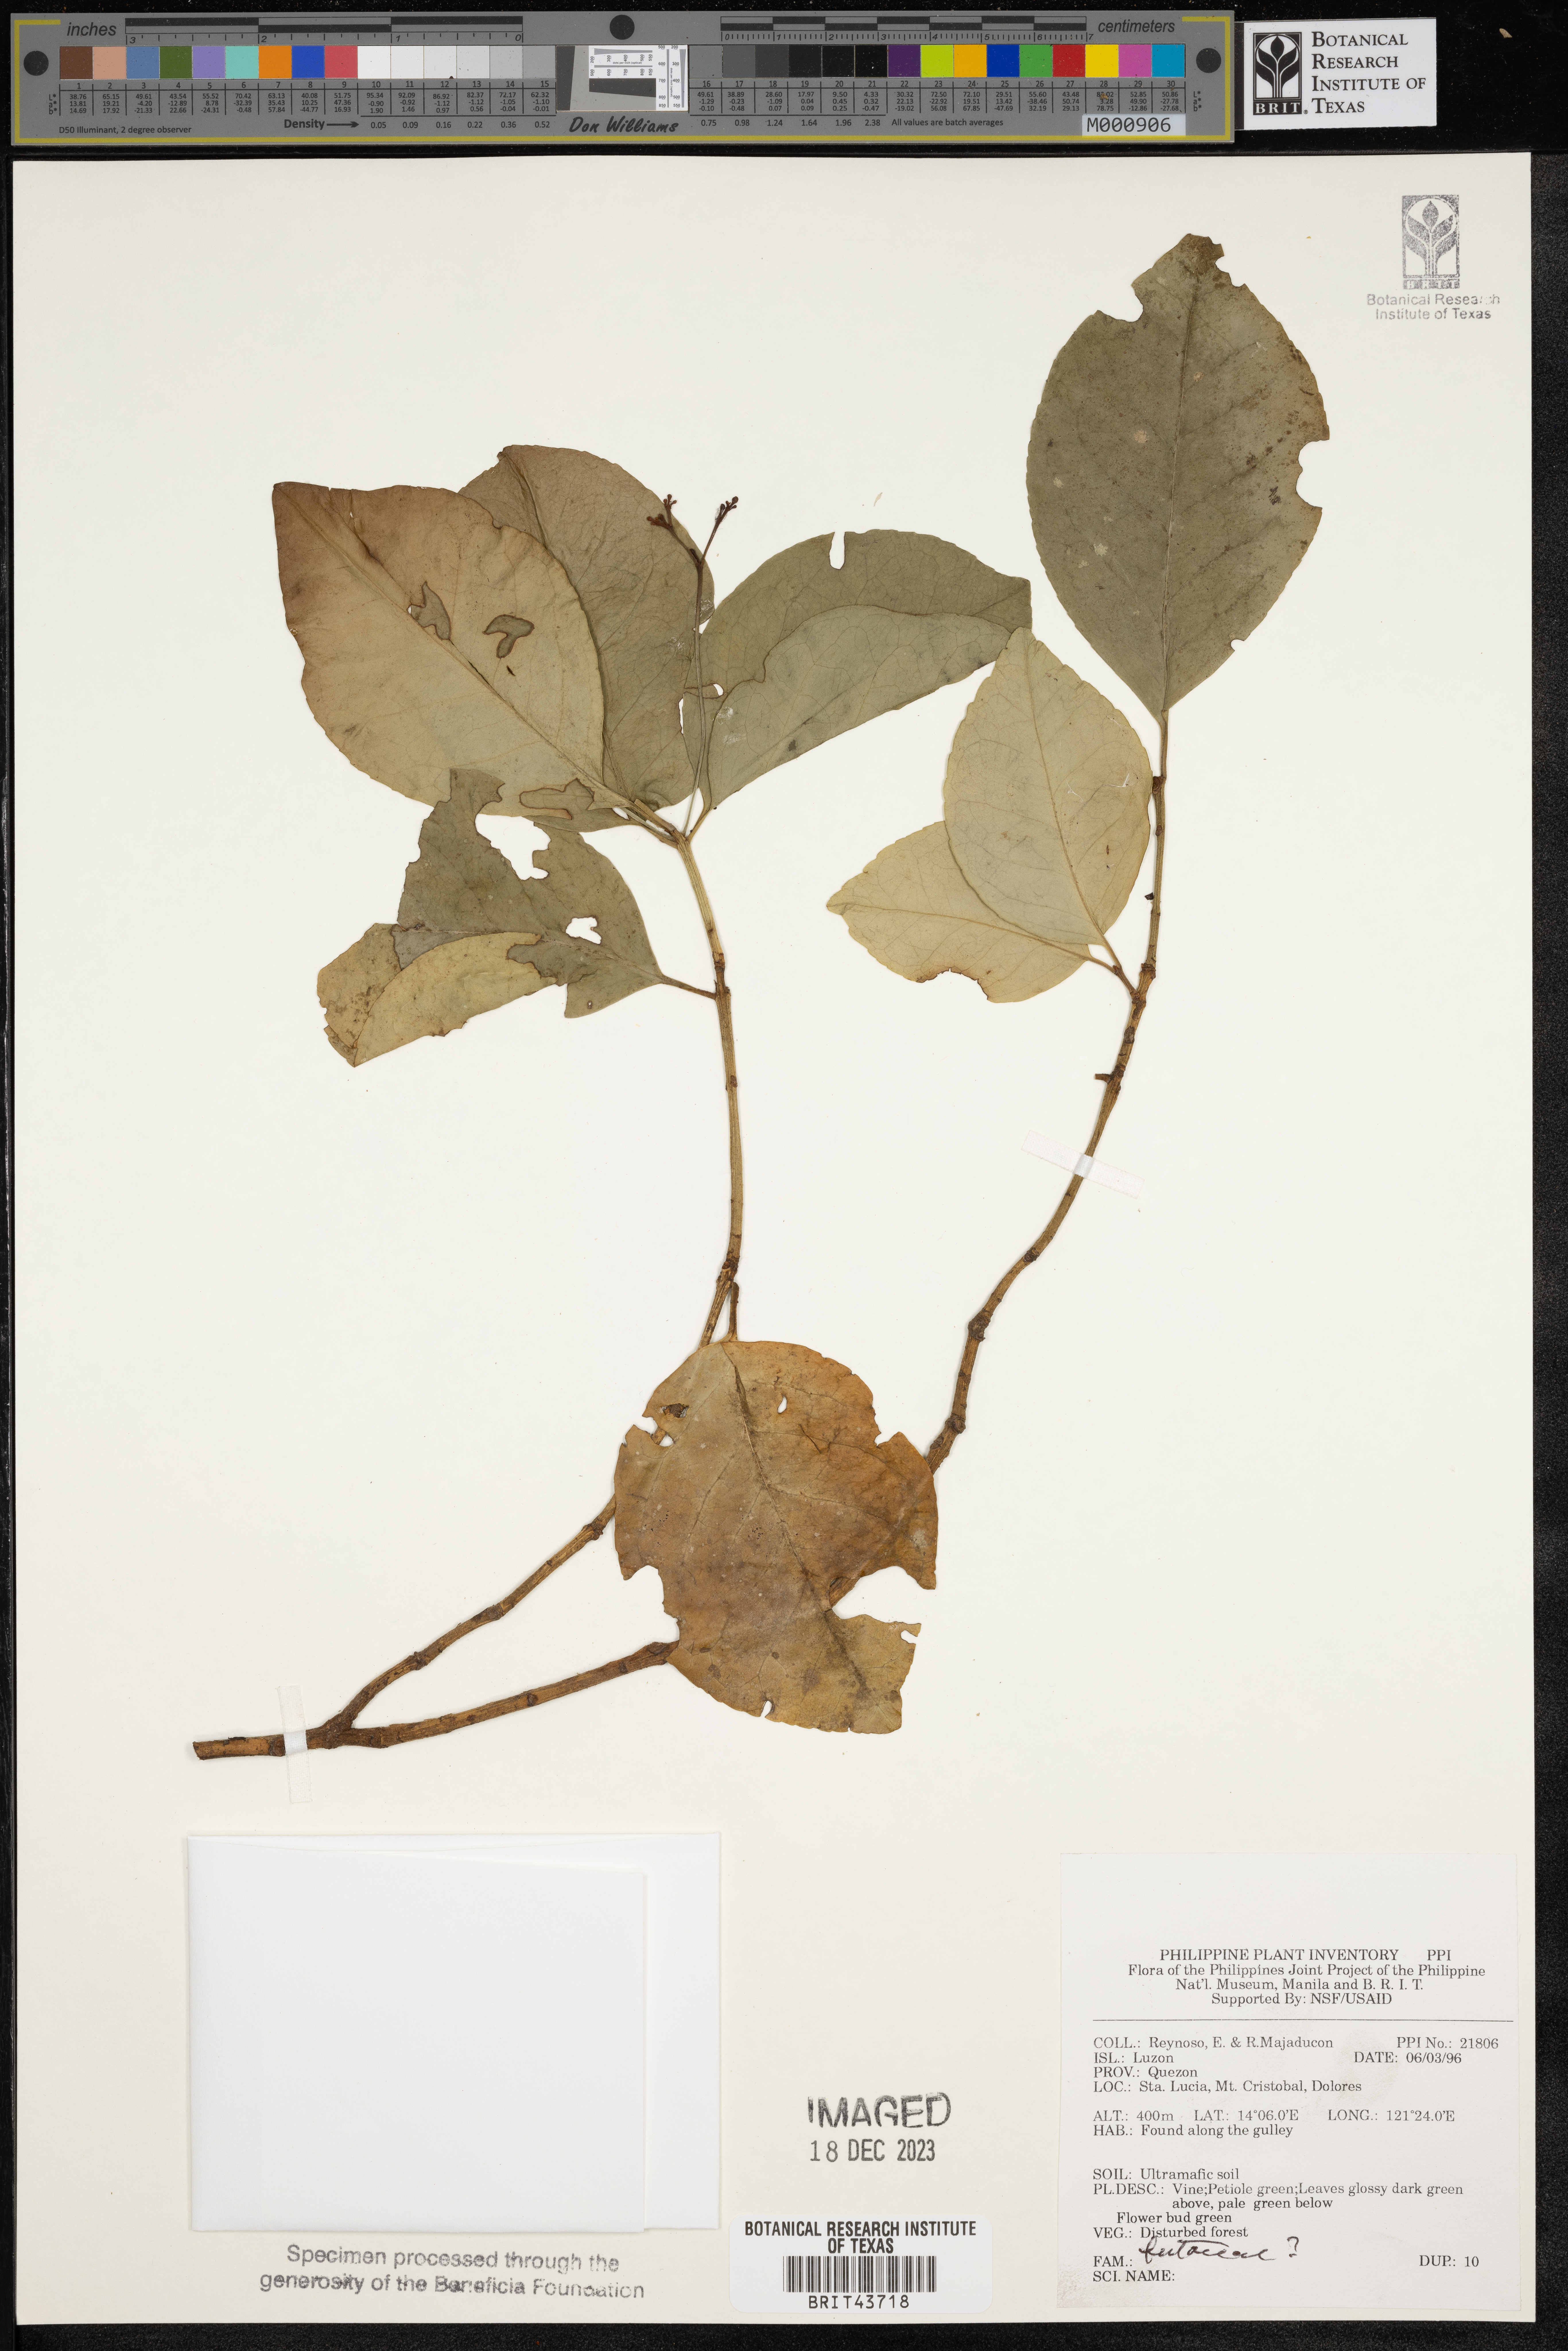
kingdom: Plantae
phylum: Tracheophyta
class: Magnoliopsida
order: Sapindales
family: Rutaceae
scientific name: Rutaceae
